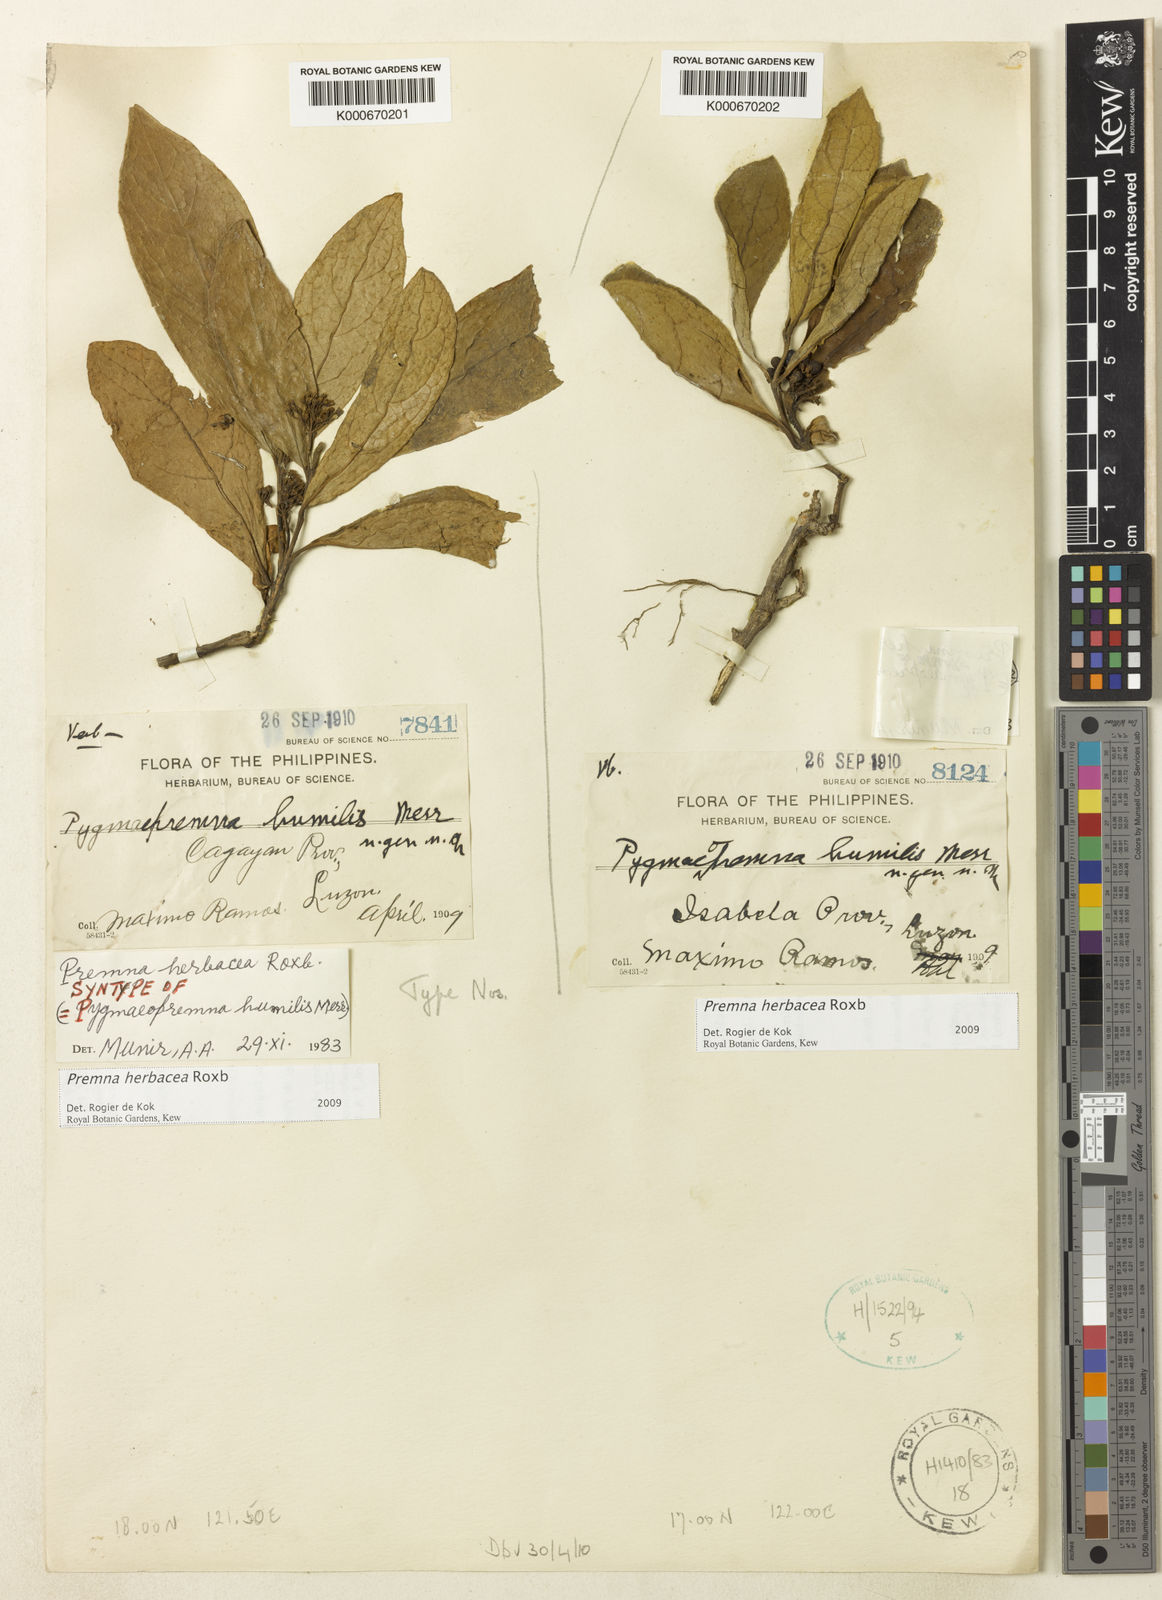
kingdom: Plantae
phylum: Tracheophyta
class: Magnoliopsida
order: Lamiales
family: Lamiaceae
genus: Premna
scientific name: Premna herbacea
